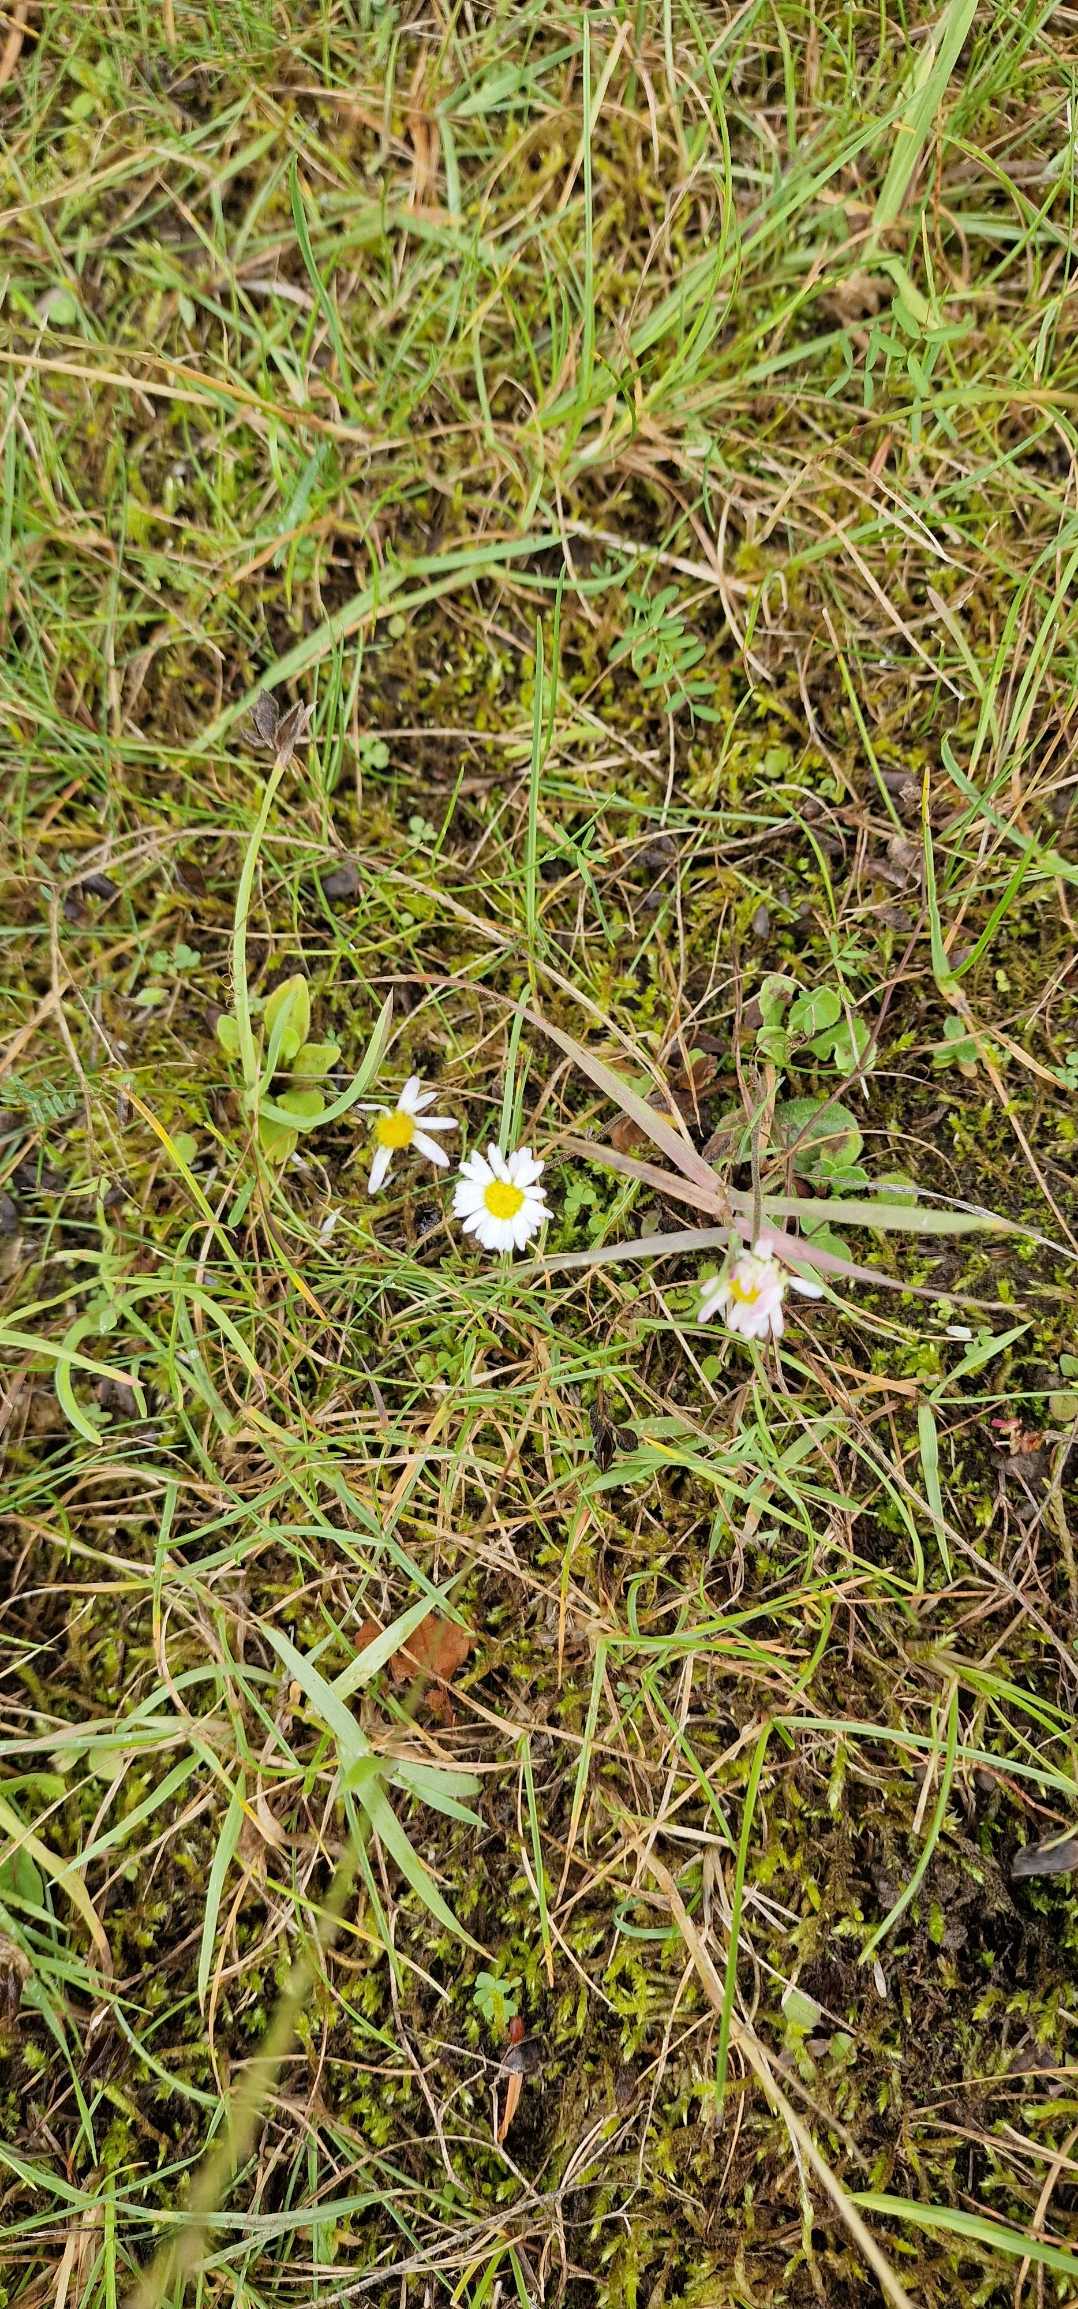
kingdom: Plantae
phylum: Tracheophyta
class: Magnoliopsida
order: Asterales
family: Asteraceae
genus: Bellis
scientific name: Bellis perennis
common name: Tusindfryd
